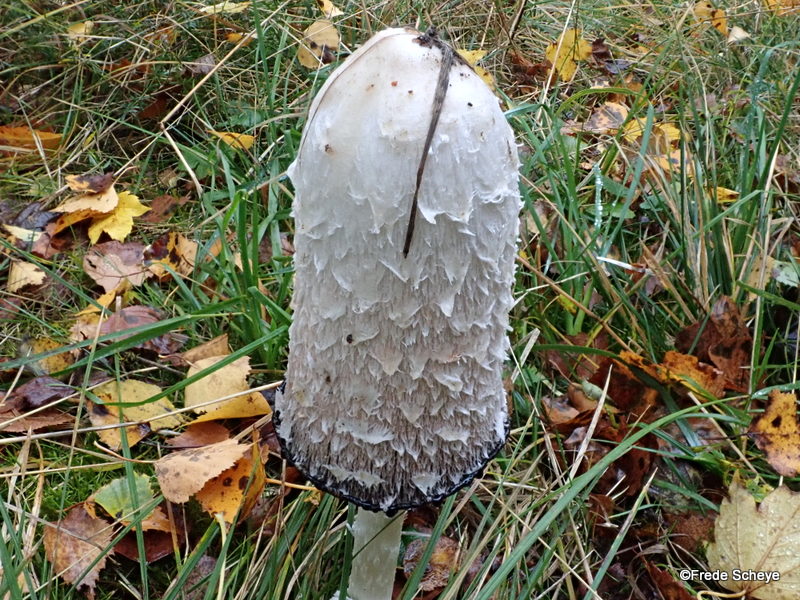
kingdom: Fungi
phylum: Basidiomycota
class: Agaricomycetes
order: Agaricales
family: Agaricaceae
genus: Coprinus
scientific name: Coprinus comatus
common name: stor parykhat
